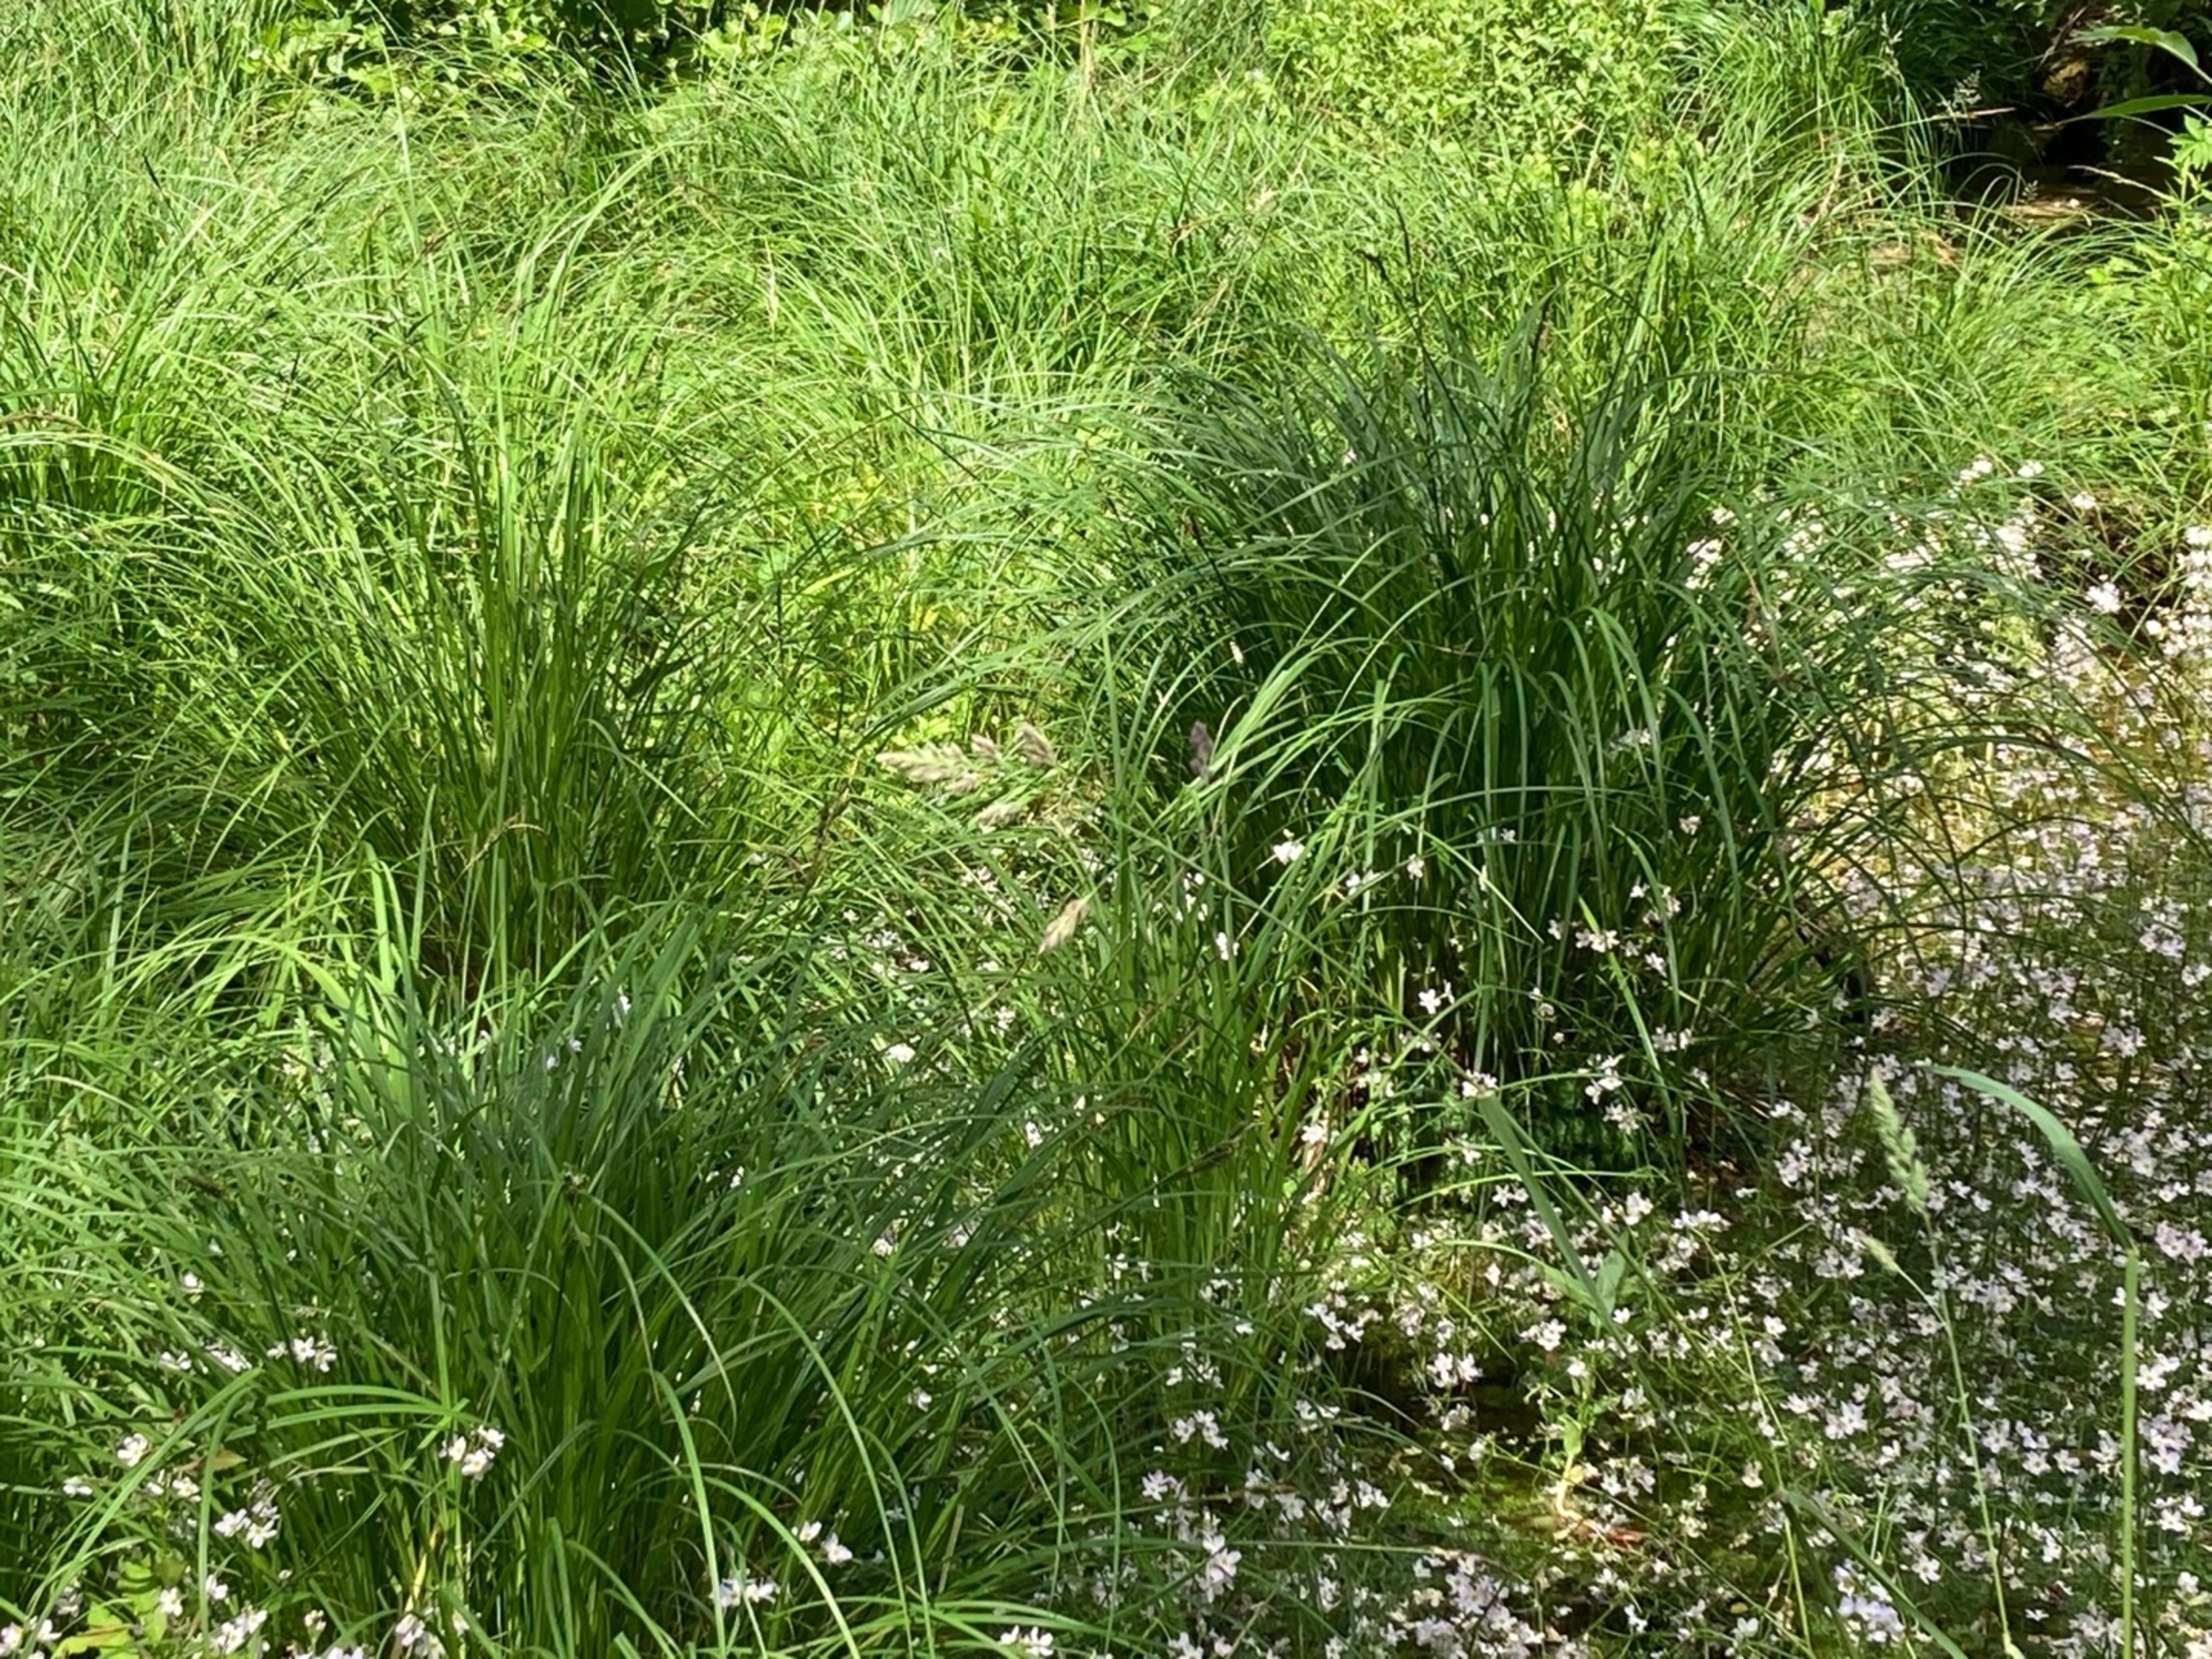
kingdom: Plantae
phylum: Tracheophyta
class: Liliopsida
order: Poales
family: Cyperaceae
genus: Carex
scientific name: Carex elata
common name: Stiv star
